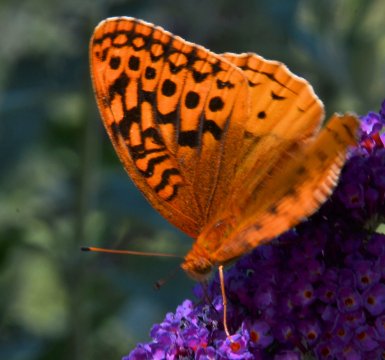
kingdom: Animalia
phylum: Arthropoda
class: Insecta
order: Lepidoptera
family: Nymphalidae
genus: Speyeria
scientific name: Speyeria cybele
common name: Great Spangled Fritillary
